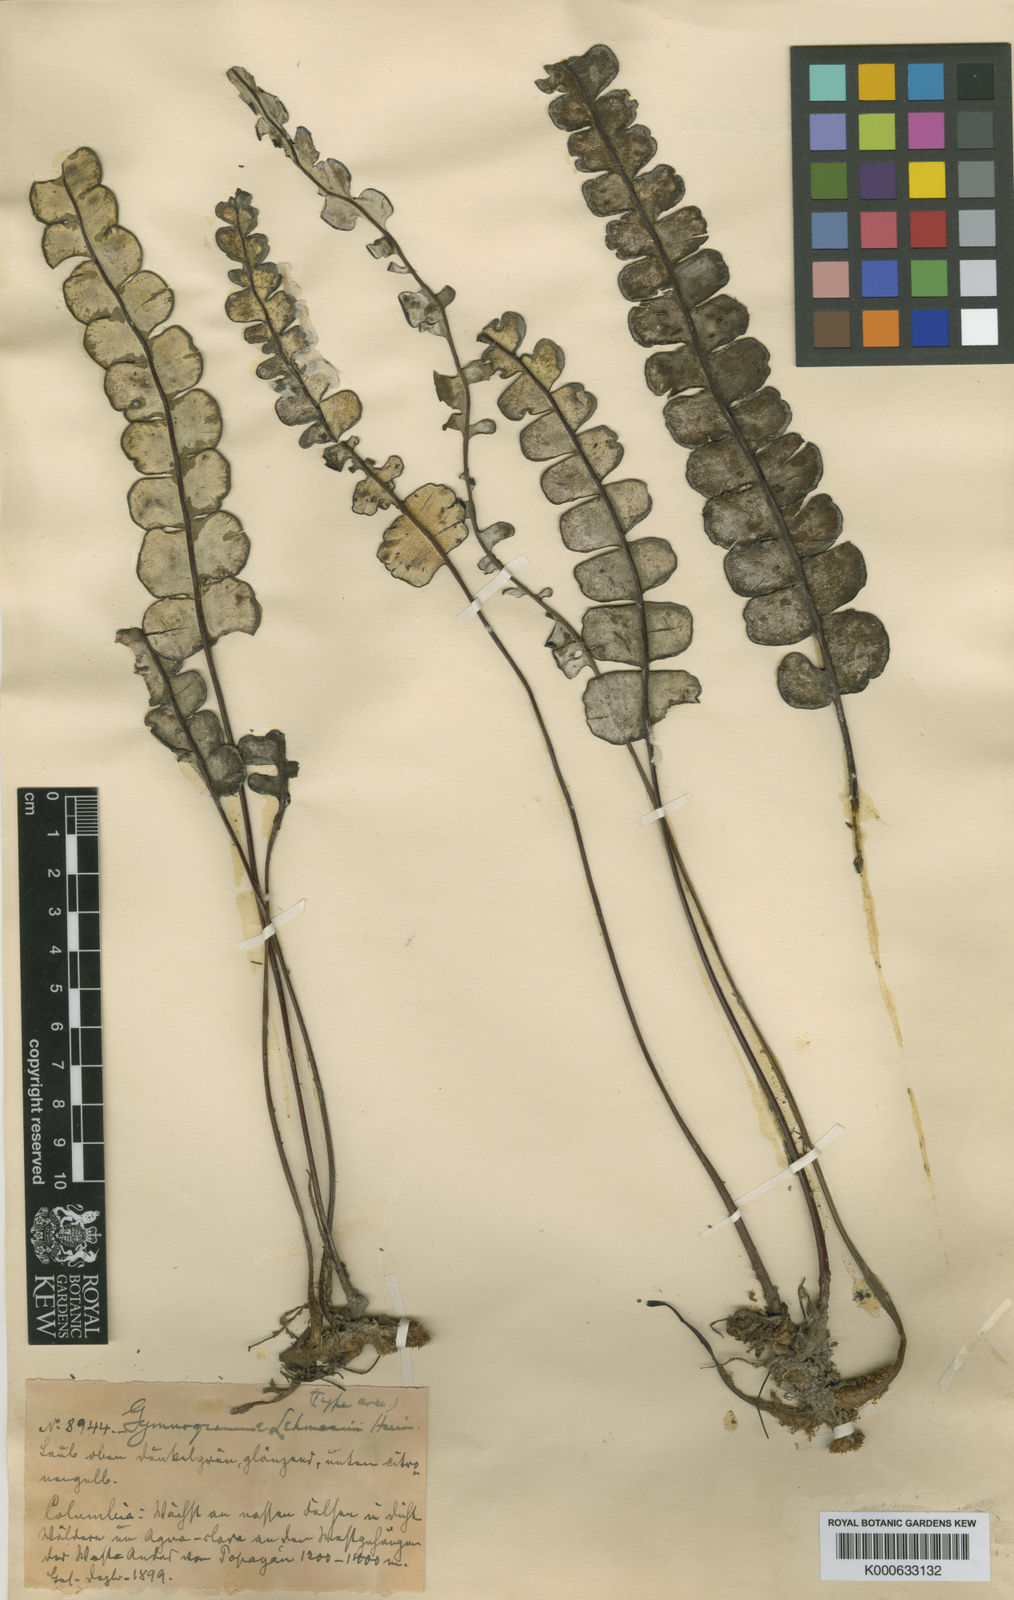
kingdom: Plantae
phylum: Tracheophyta
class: Polypodiopsida
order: Polypodiales
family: Pteridaceae
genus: Jamesonia
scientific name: Jamesonia
